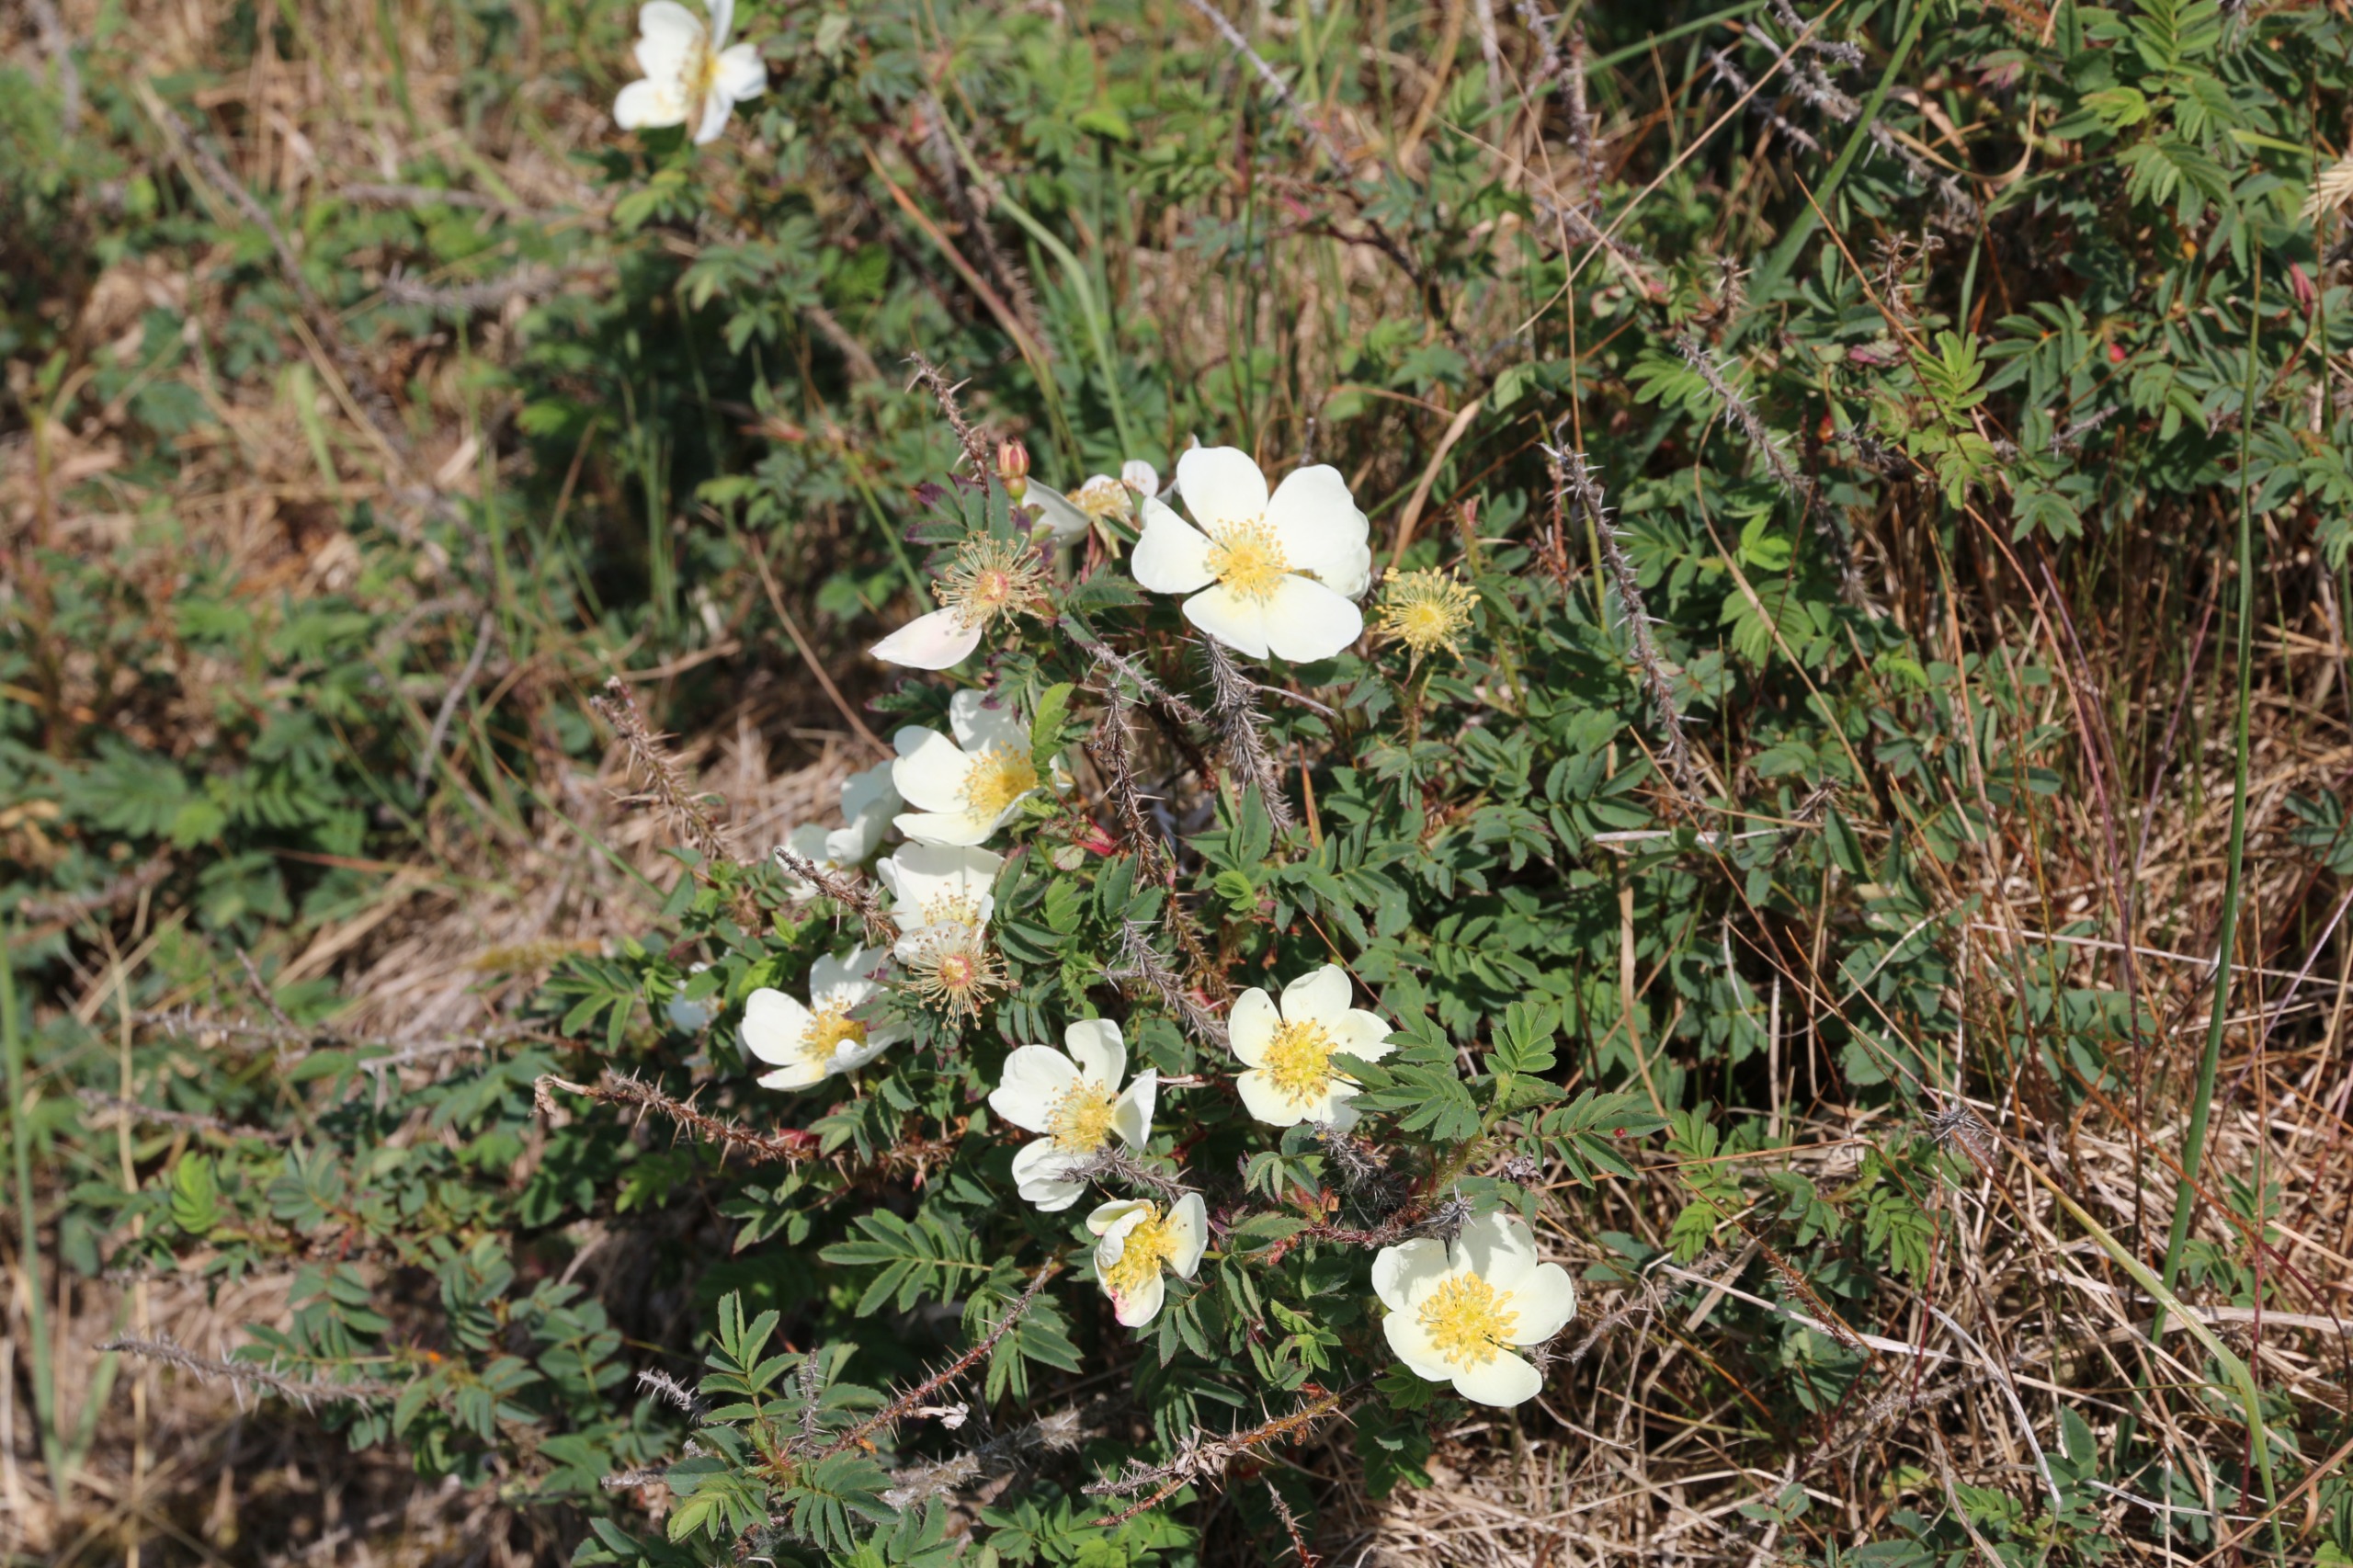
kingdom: Plantae
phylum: Tracheophyta
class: Magnoliopsida
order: Rosales
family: Rosaceae
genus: Rosa
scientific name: Rosa spinosissima
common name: Klit-rose
